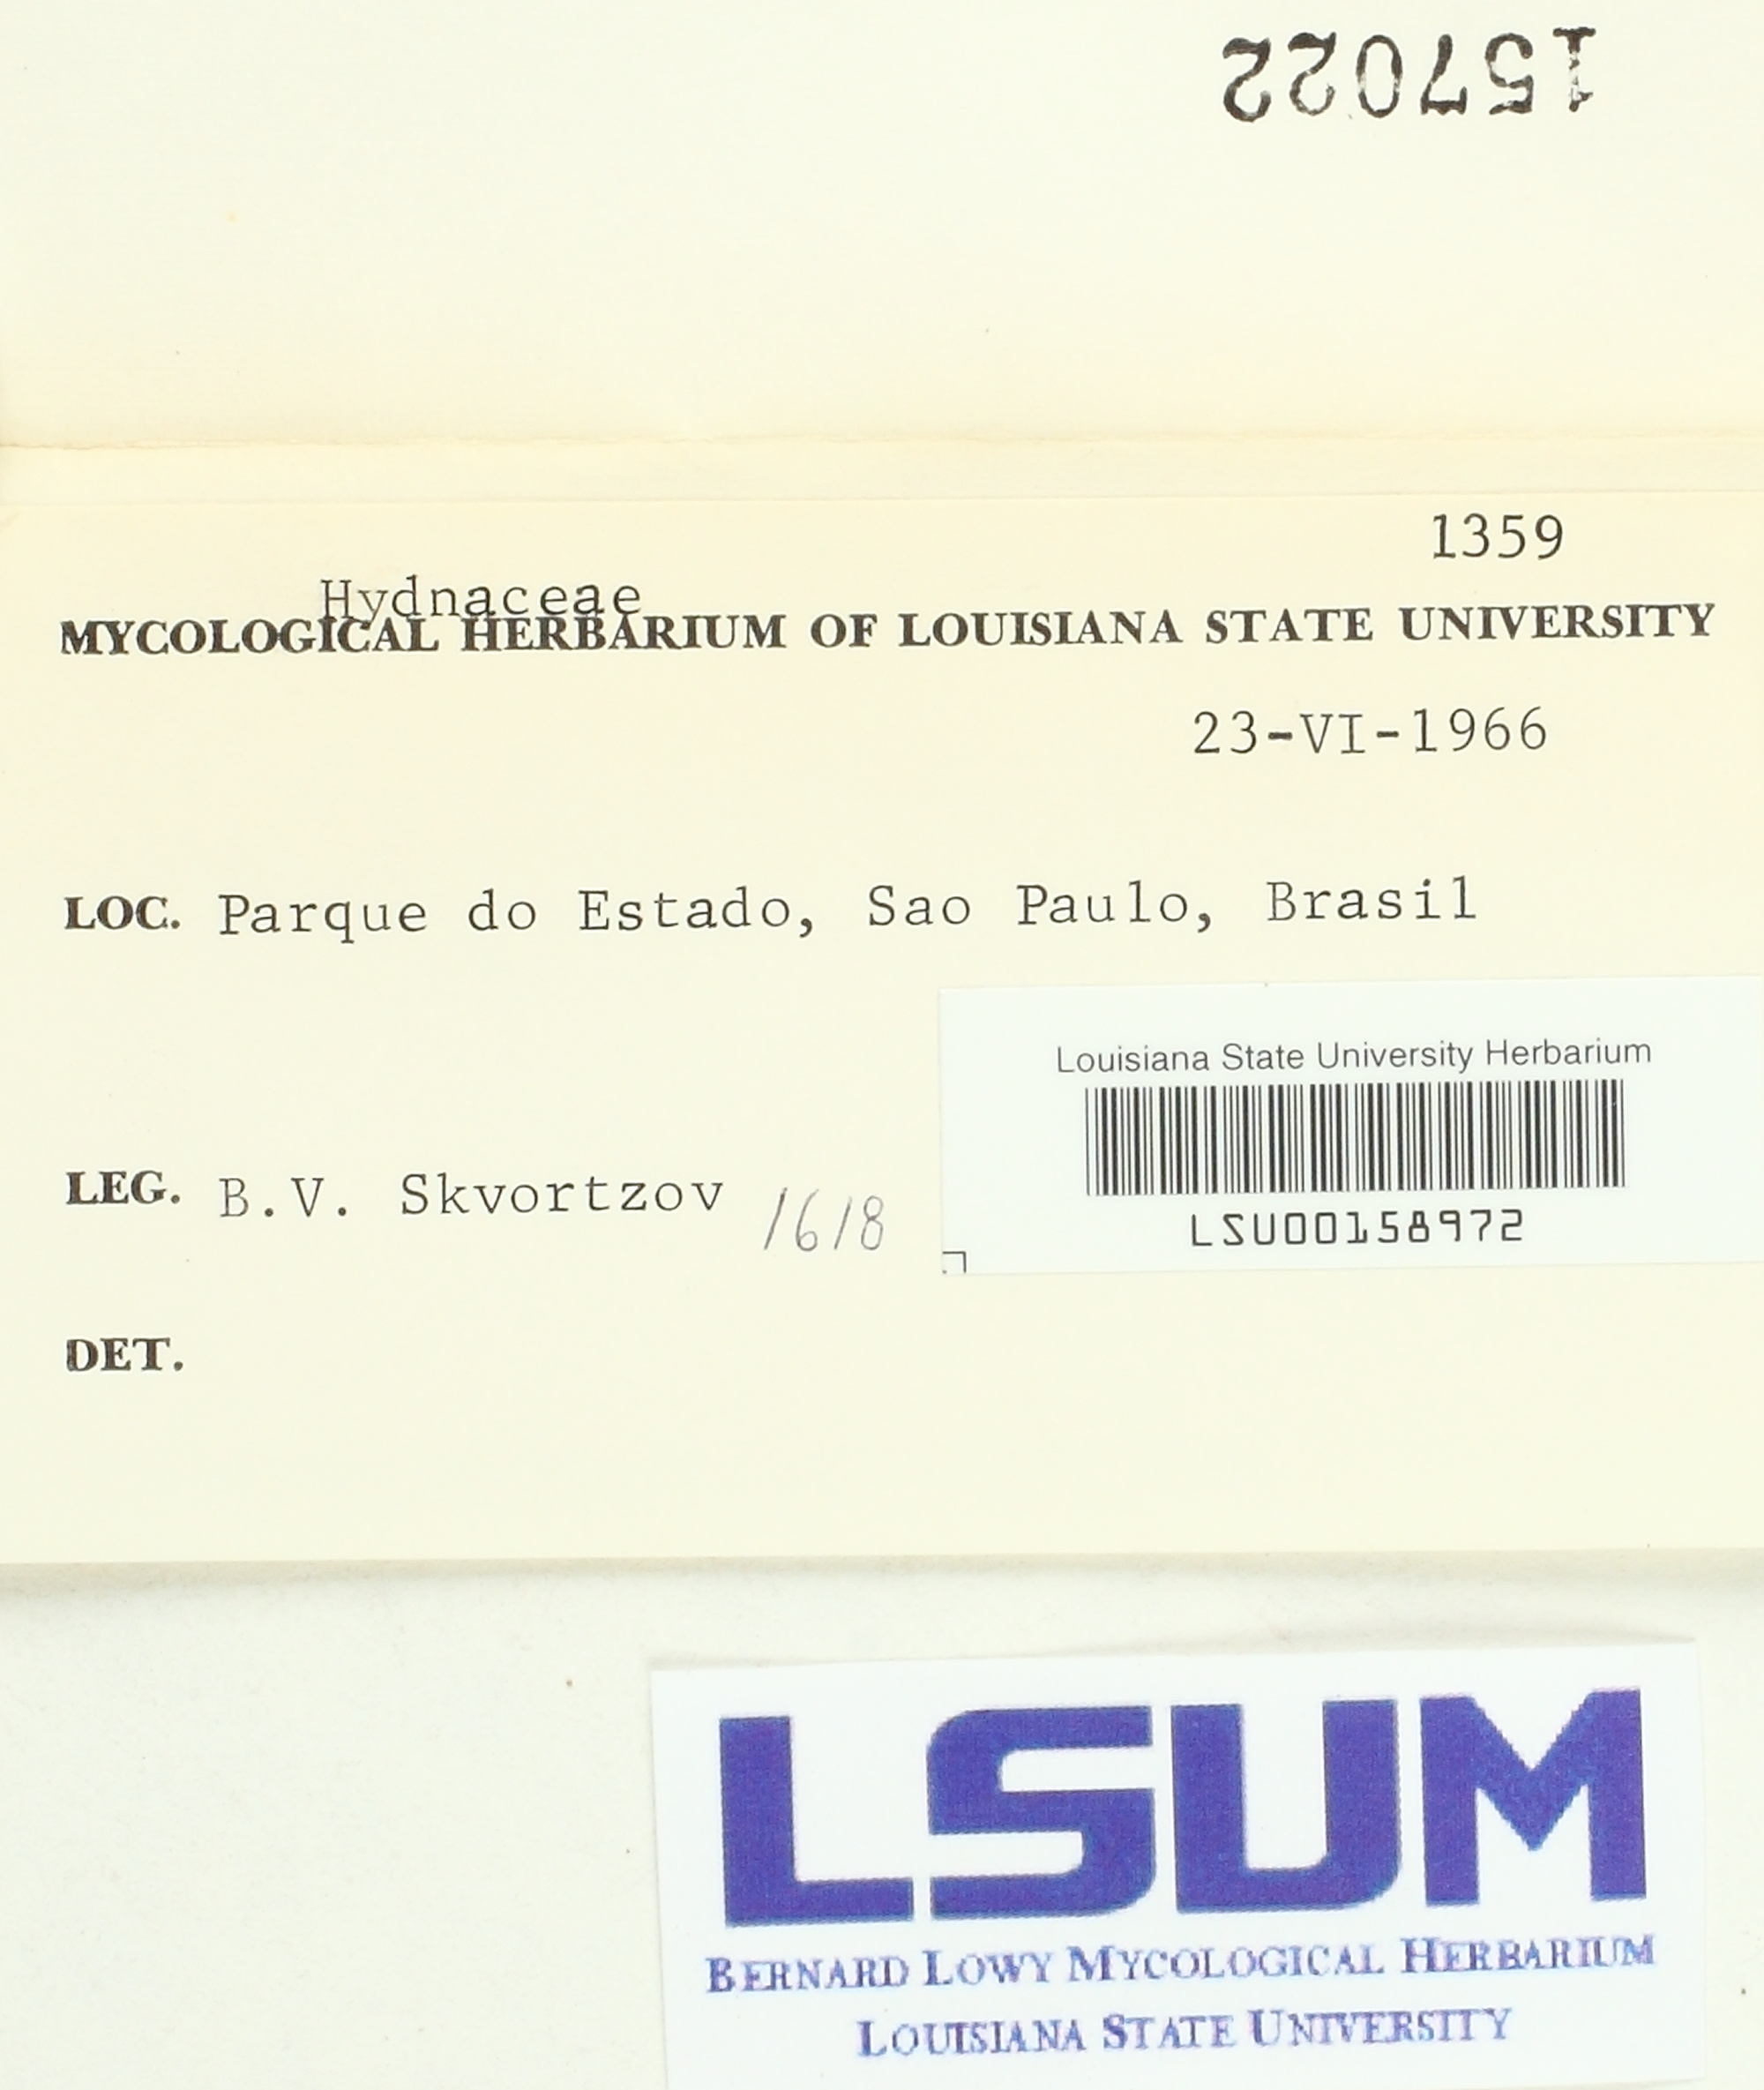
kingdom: Fungi
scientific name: Fungi
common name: Fungi
